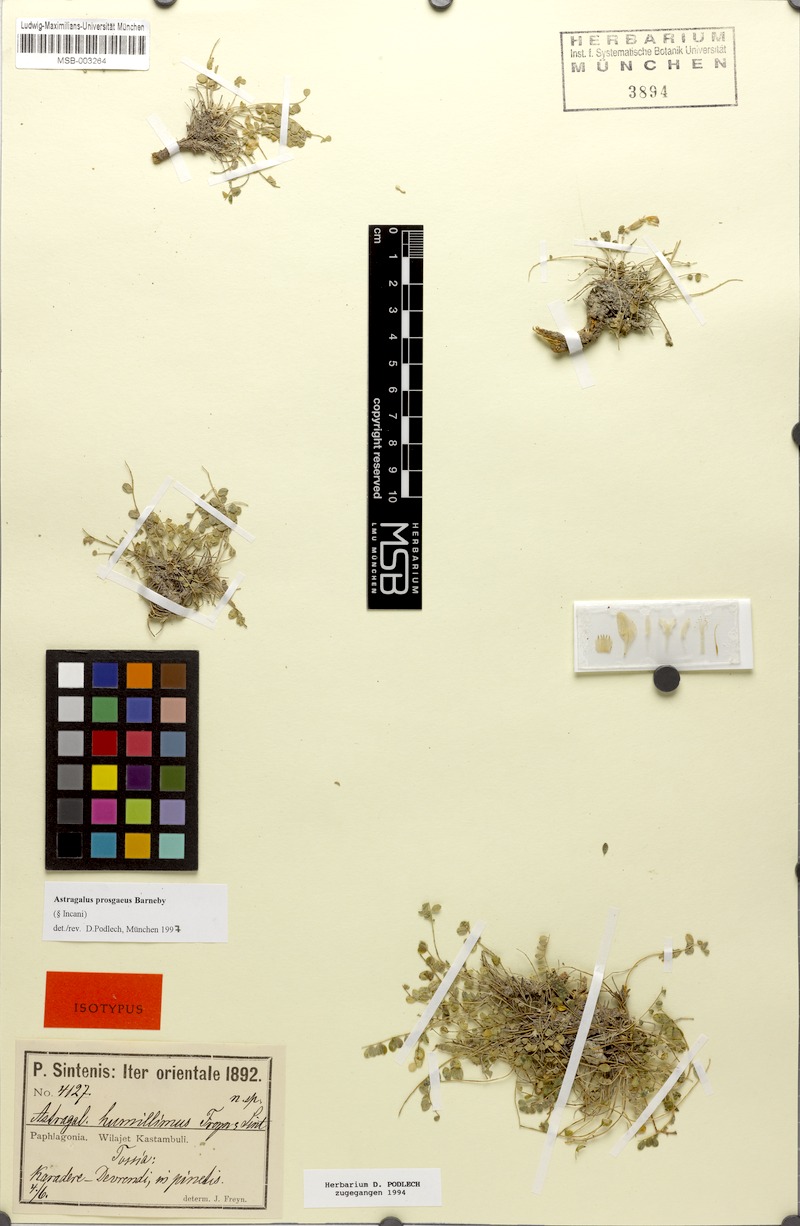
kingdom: Plantae
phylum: Tracheophyta
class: Magnoliopsida
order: Fabales
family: Fabaceae
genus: Astragalus
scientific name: Astragalus prosgaeus
